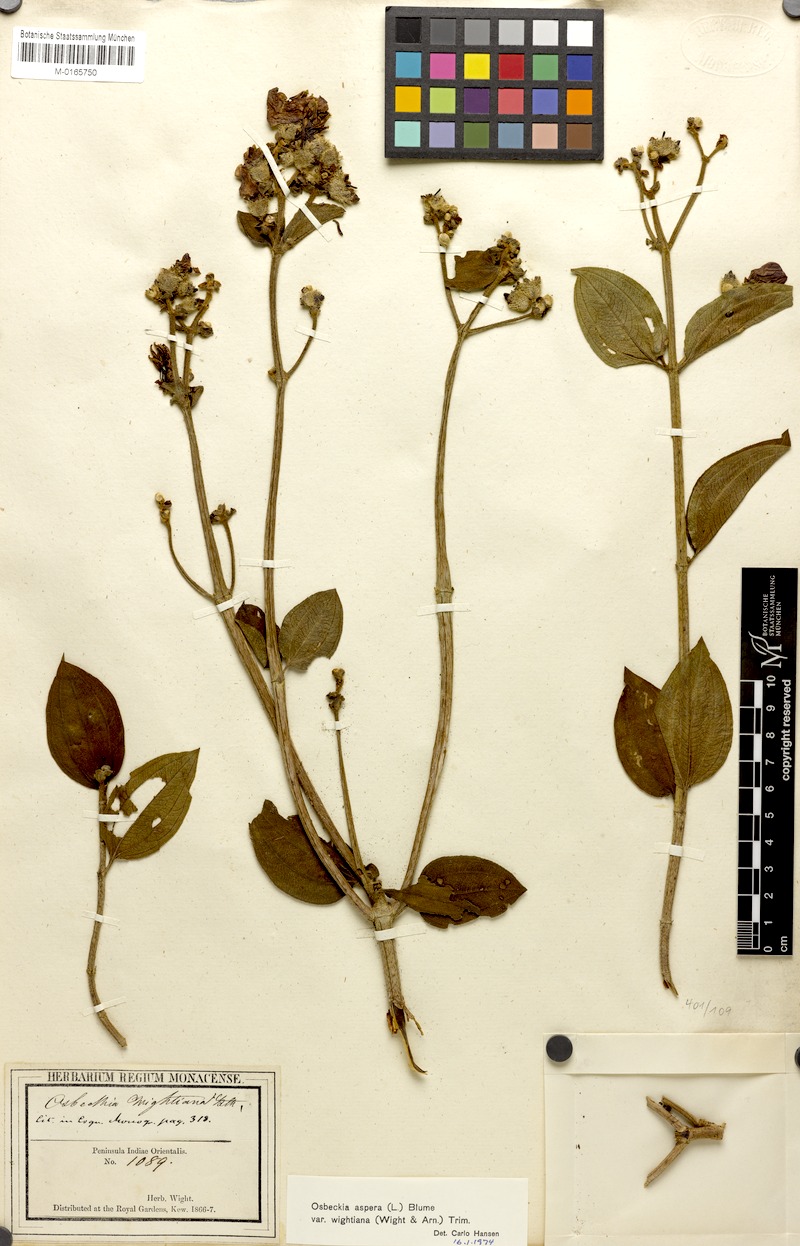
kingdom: Plantae
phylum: Tracheophyta
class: Magnoliopsida
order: Myrtales
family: Melastomataceae
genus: Osbeckia
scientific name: Osbeckia
